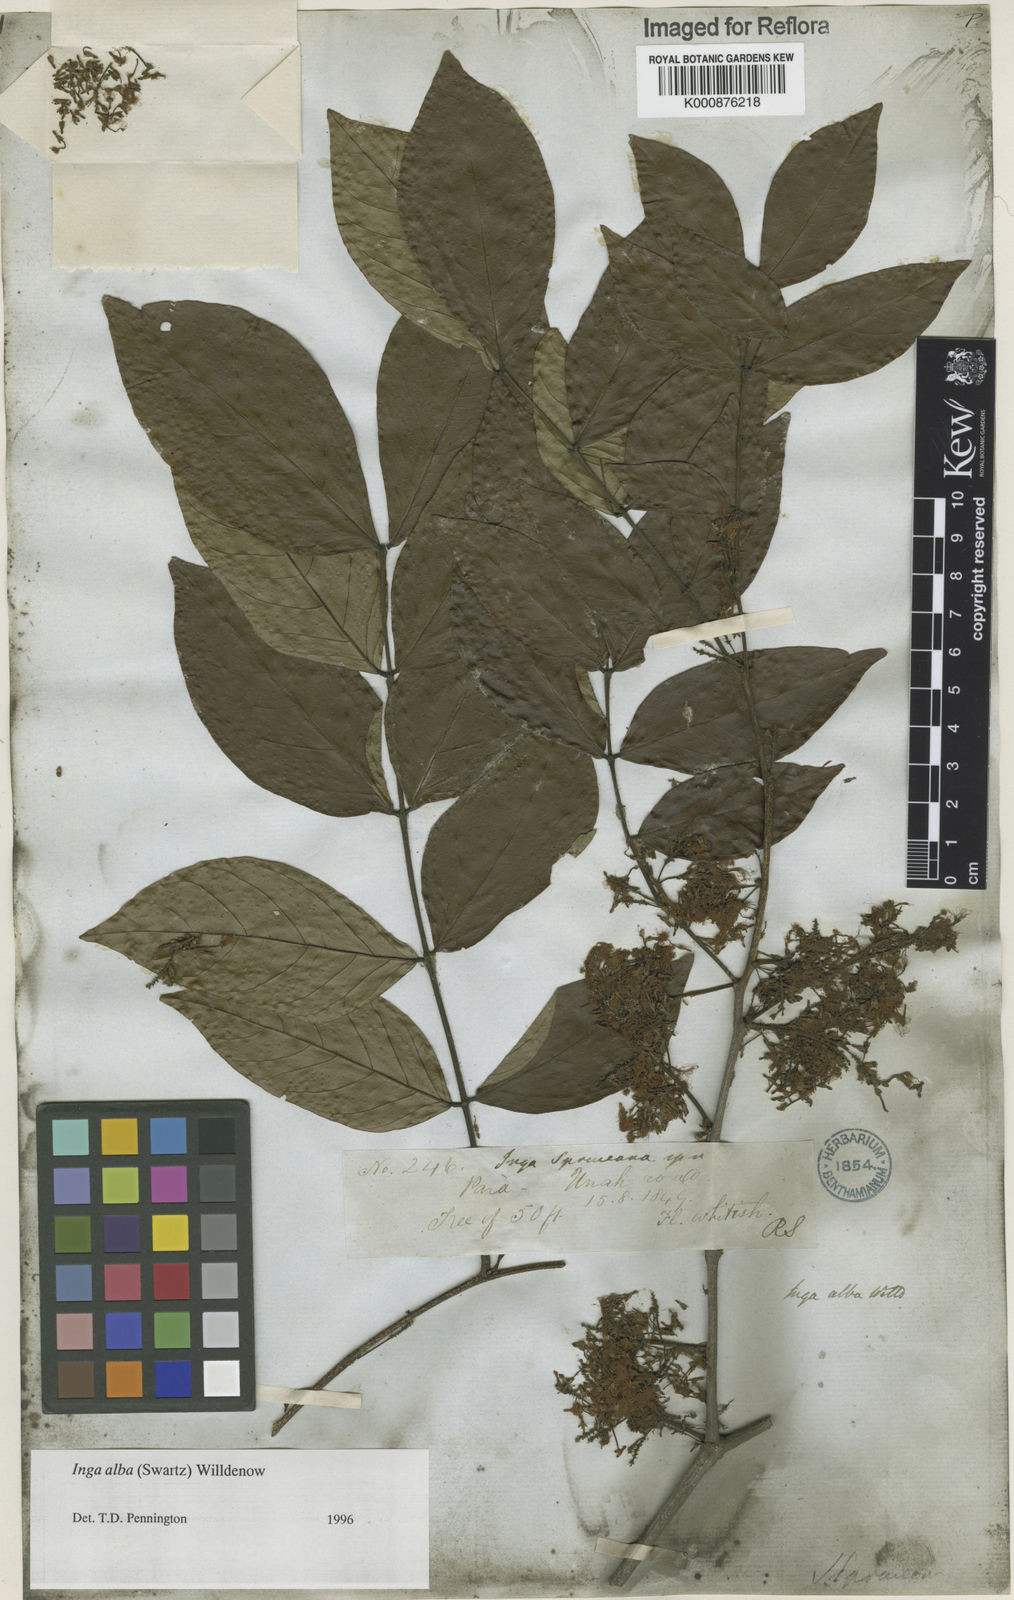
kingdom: Plantae
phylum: Tracheophyta
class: Magnoliopsida
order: Fabales
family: Fabaceae
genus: Inga
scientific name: Inga alba
